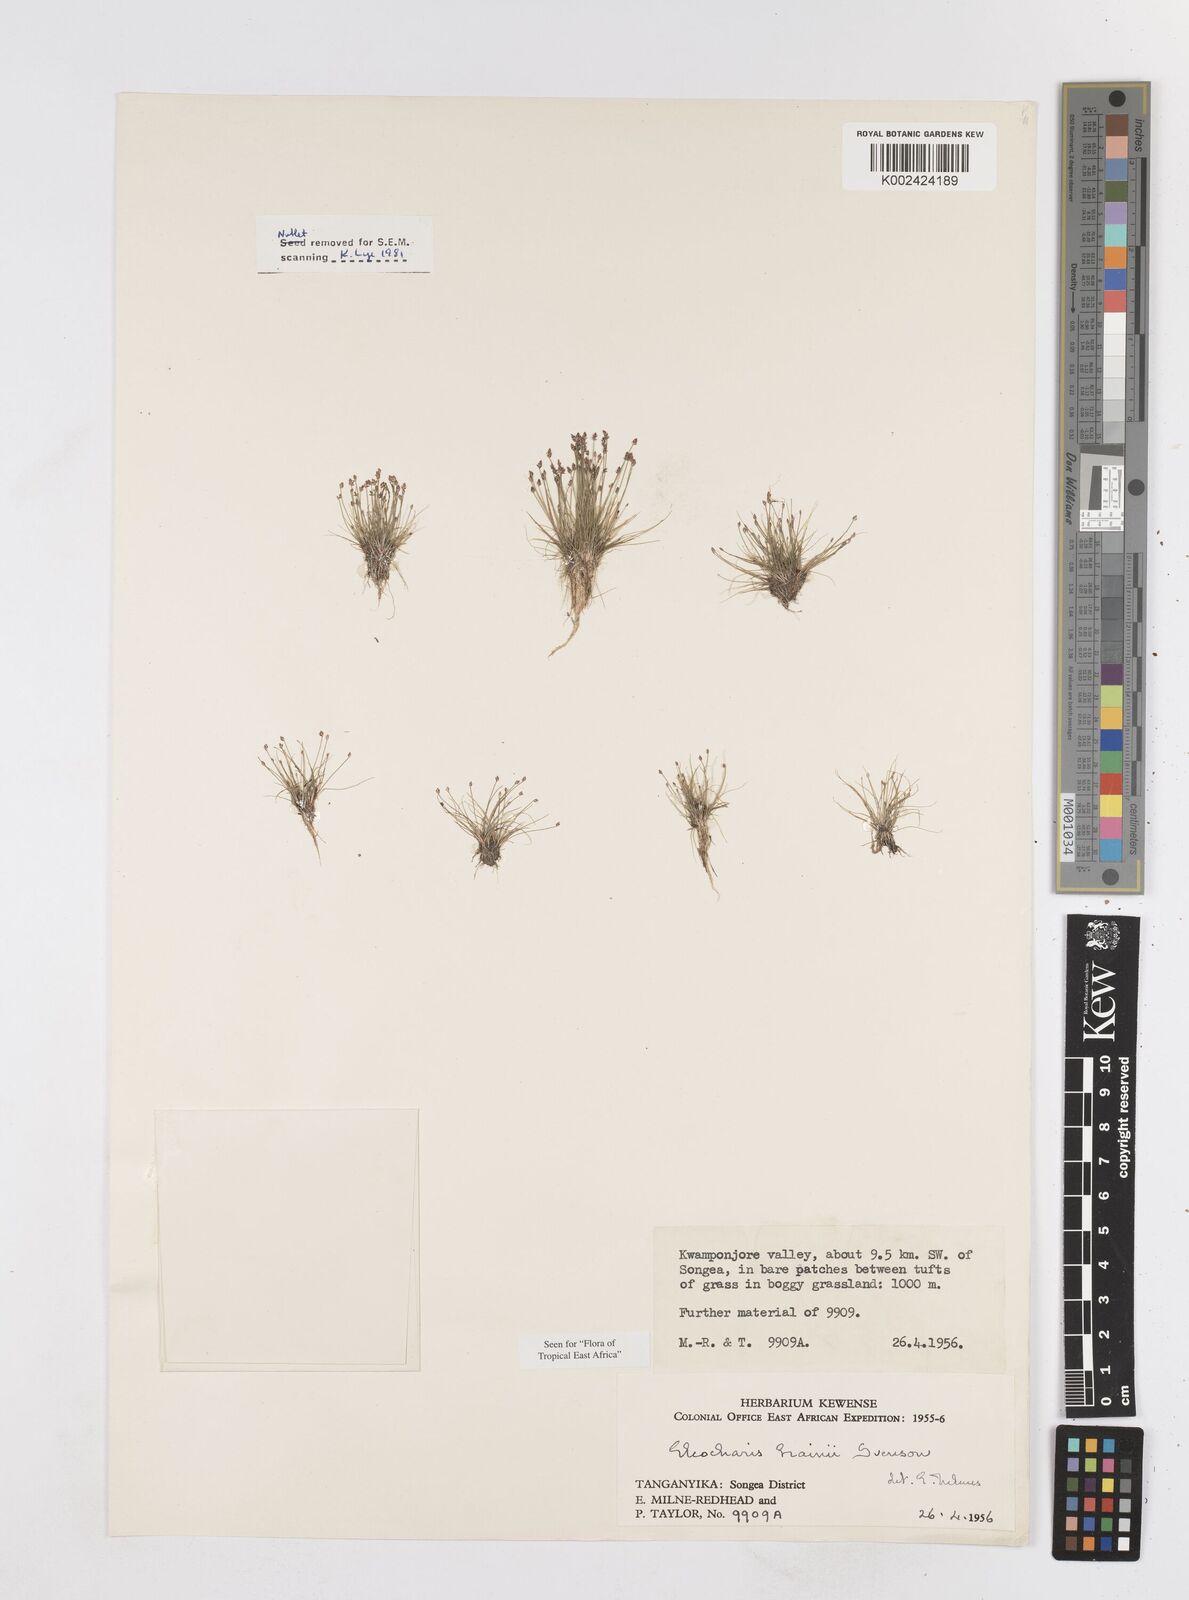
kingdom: Plantae
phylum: Tracheophyta
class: Liliopsida
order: Poales
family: Cyperaceae
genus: Eleocharis
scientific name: Eleocharis brainii
